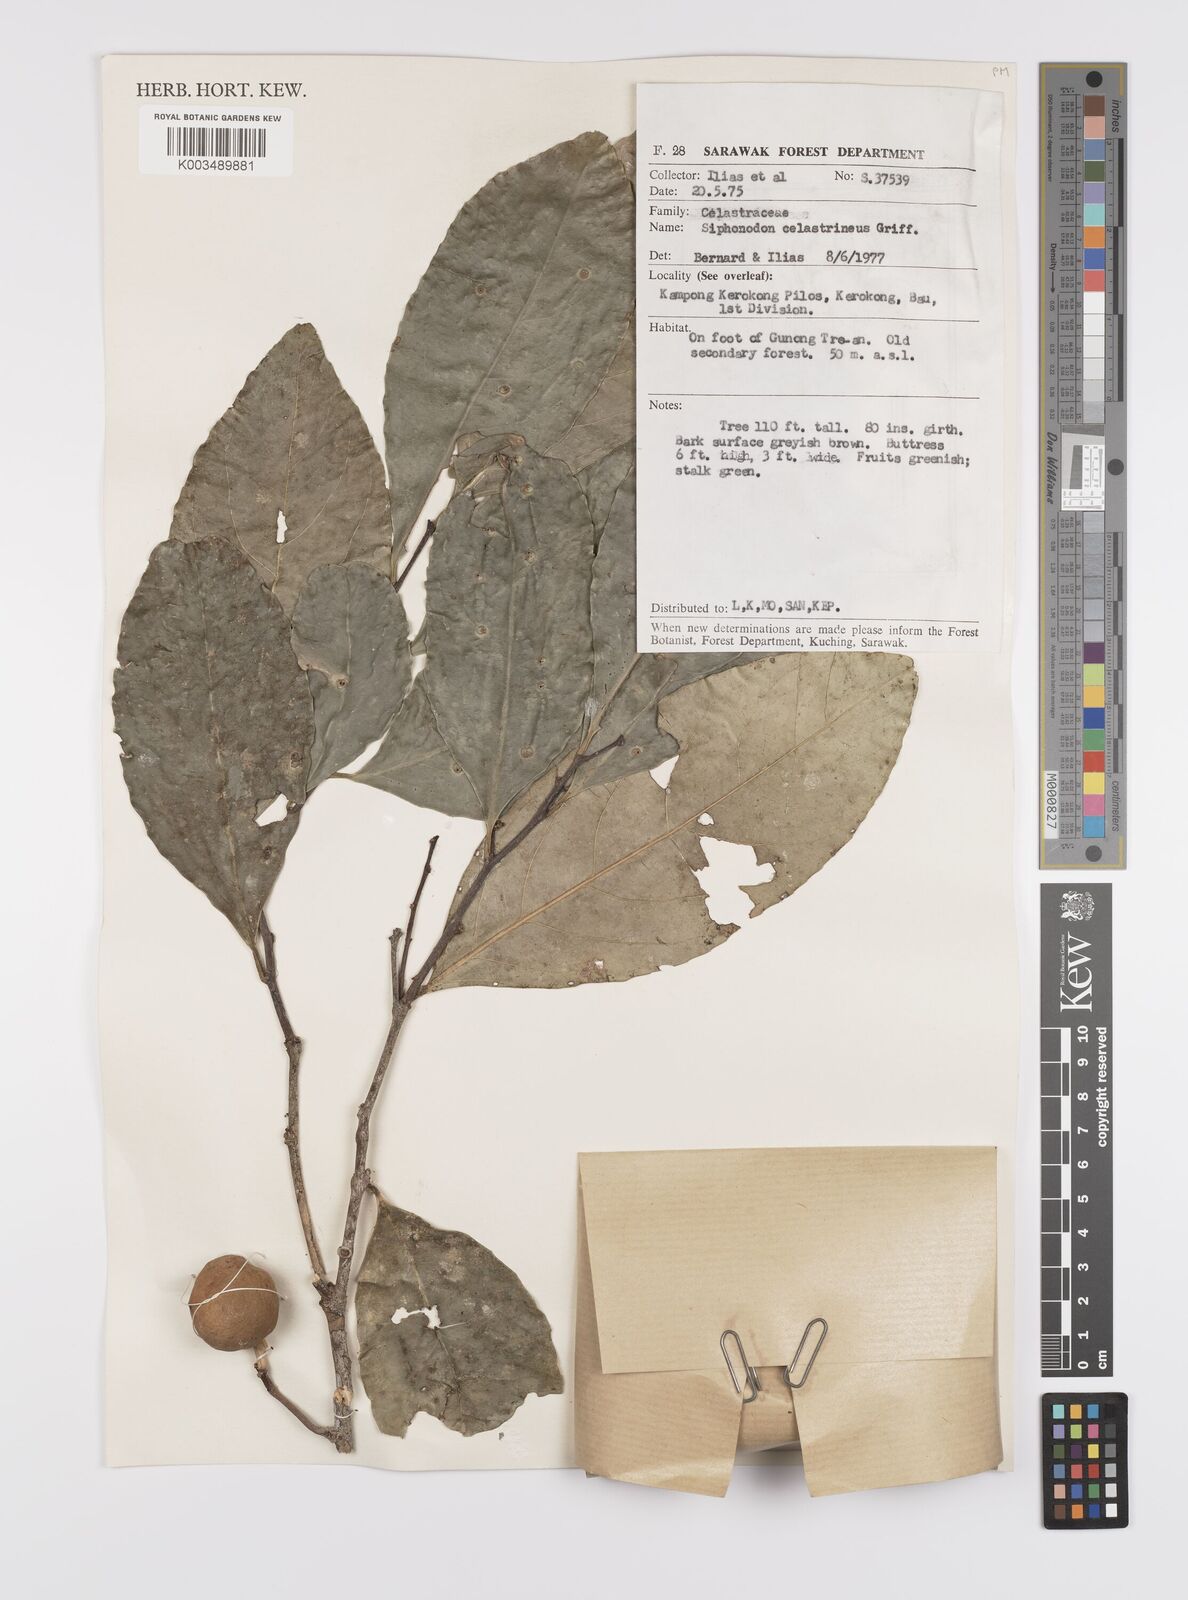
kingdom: Plantae
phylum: Tracheophyta
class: Magnoliopsida
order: Celastrales
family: Celastraceae
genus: Siphonodon
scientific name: Siphonodon celastrineus
